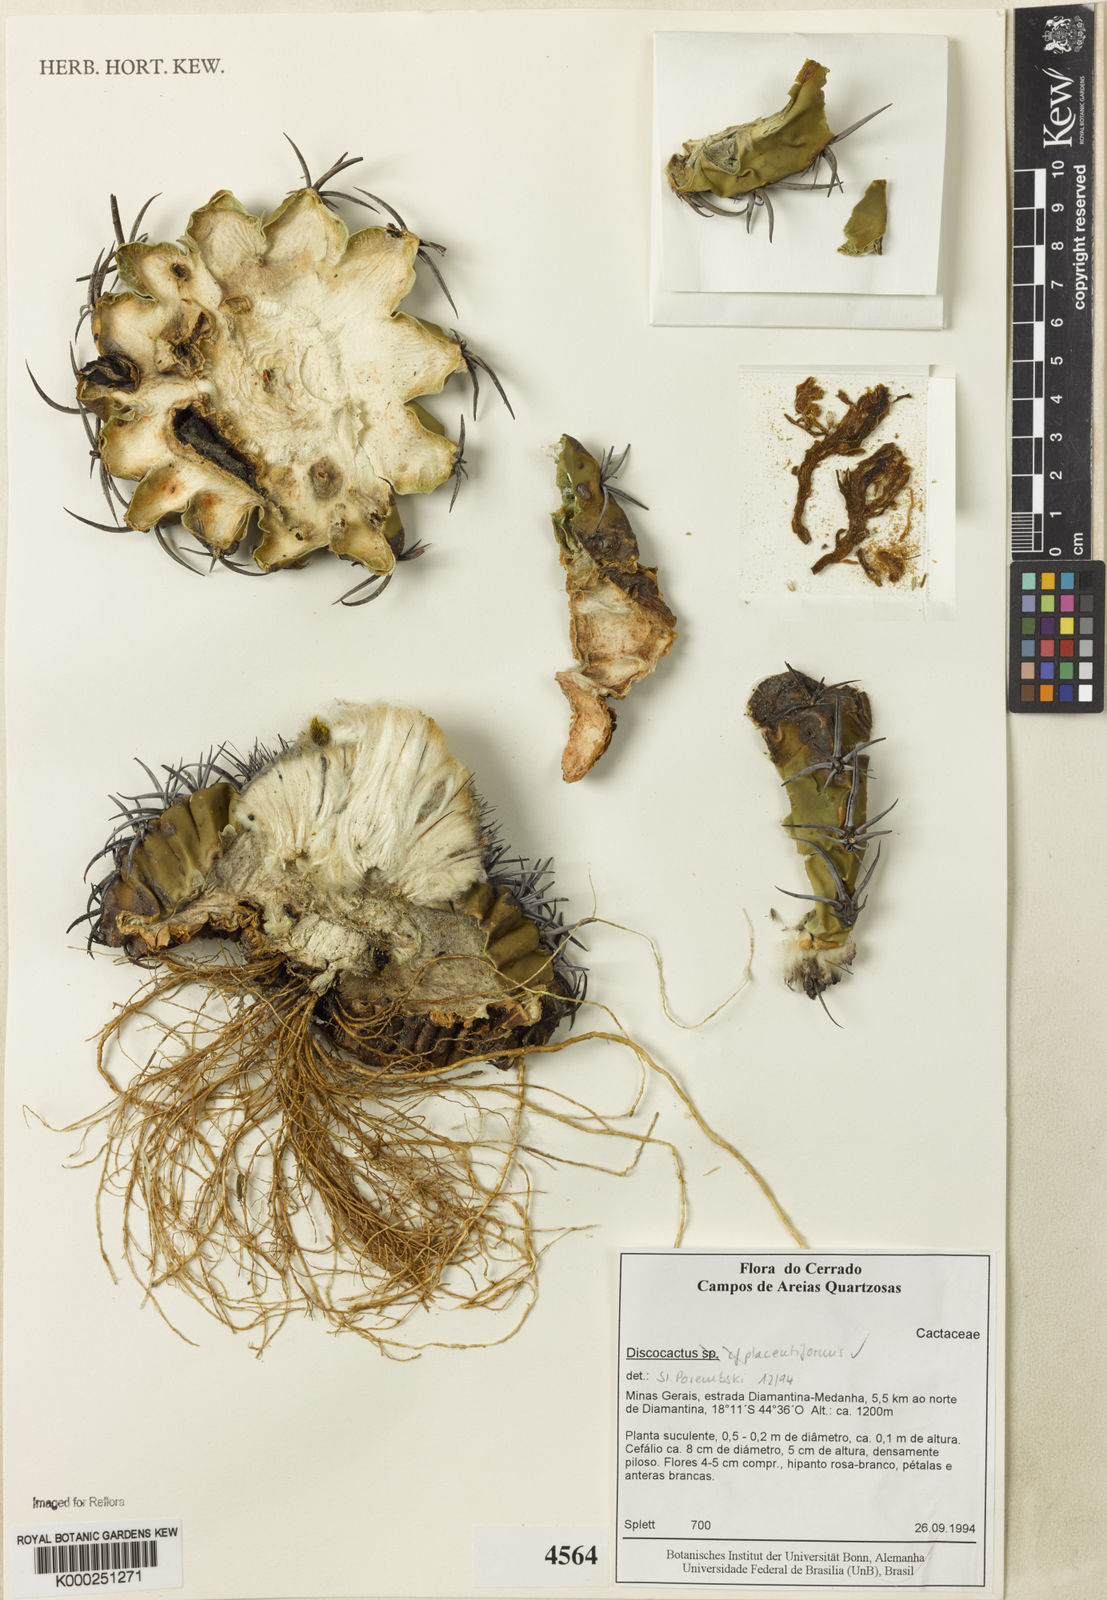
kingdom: Plantae
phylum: Tracheophyta
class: Magnoliopsida
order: Caryophyllales
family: Cactaceae
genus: Discocactus
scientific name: Discocactus placentiformis
